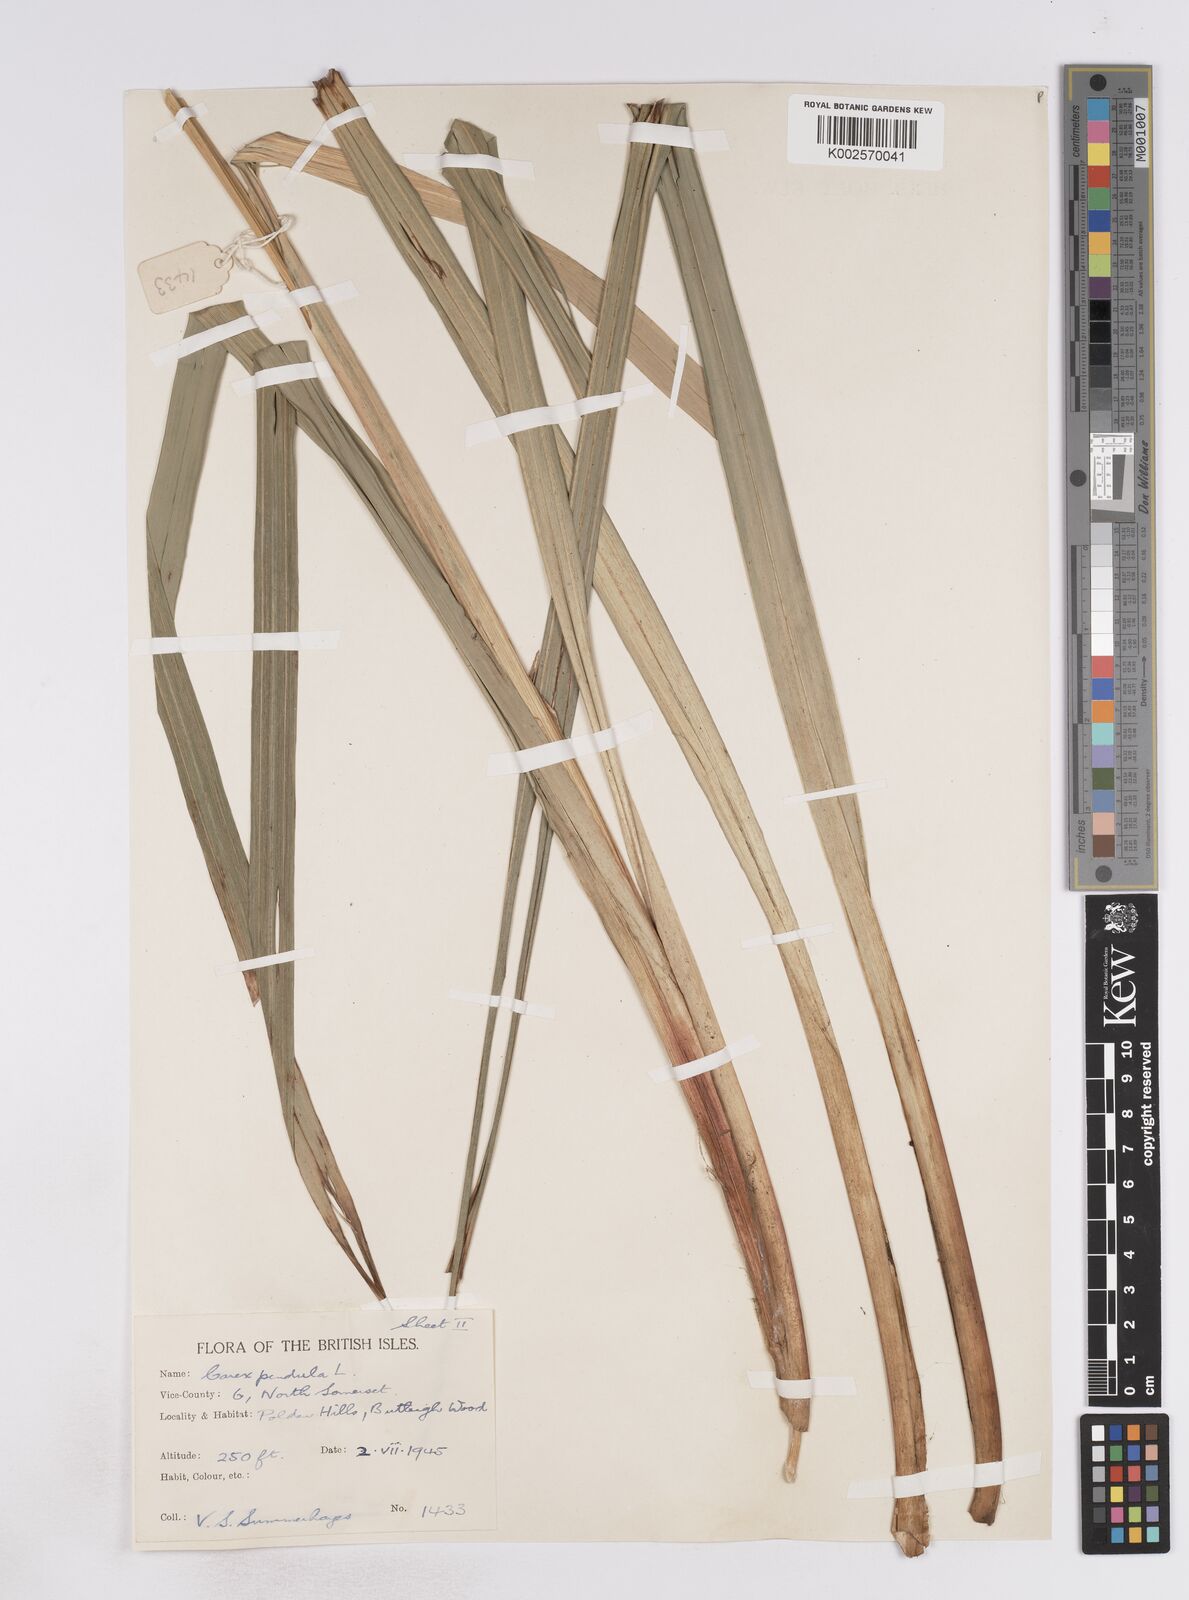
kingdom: Plantae
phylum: Tracheophyta
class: Liliopsida
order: Poales
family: Cyperaceae
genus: Carex
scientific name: Carex pendula
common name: Pendulous sedge
